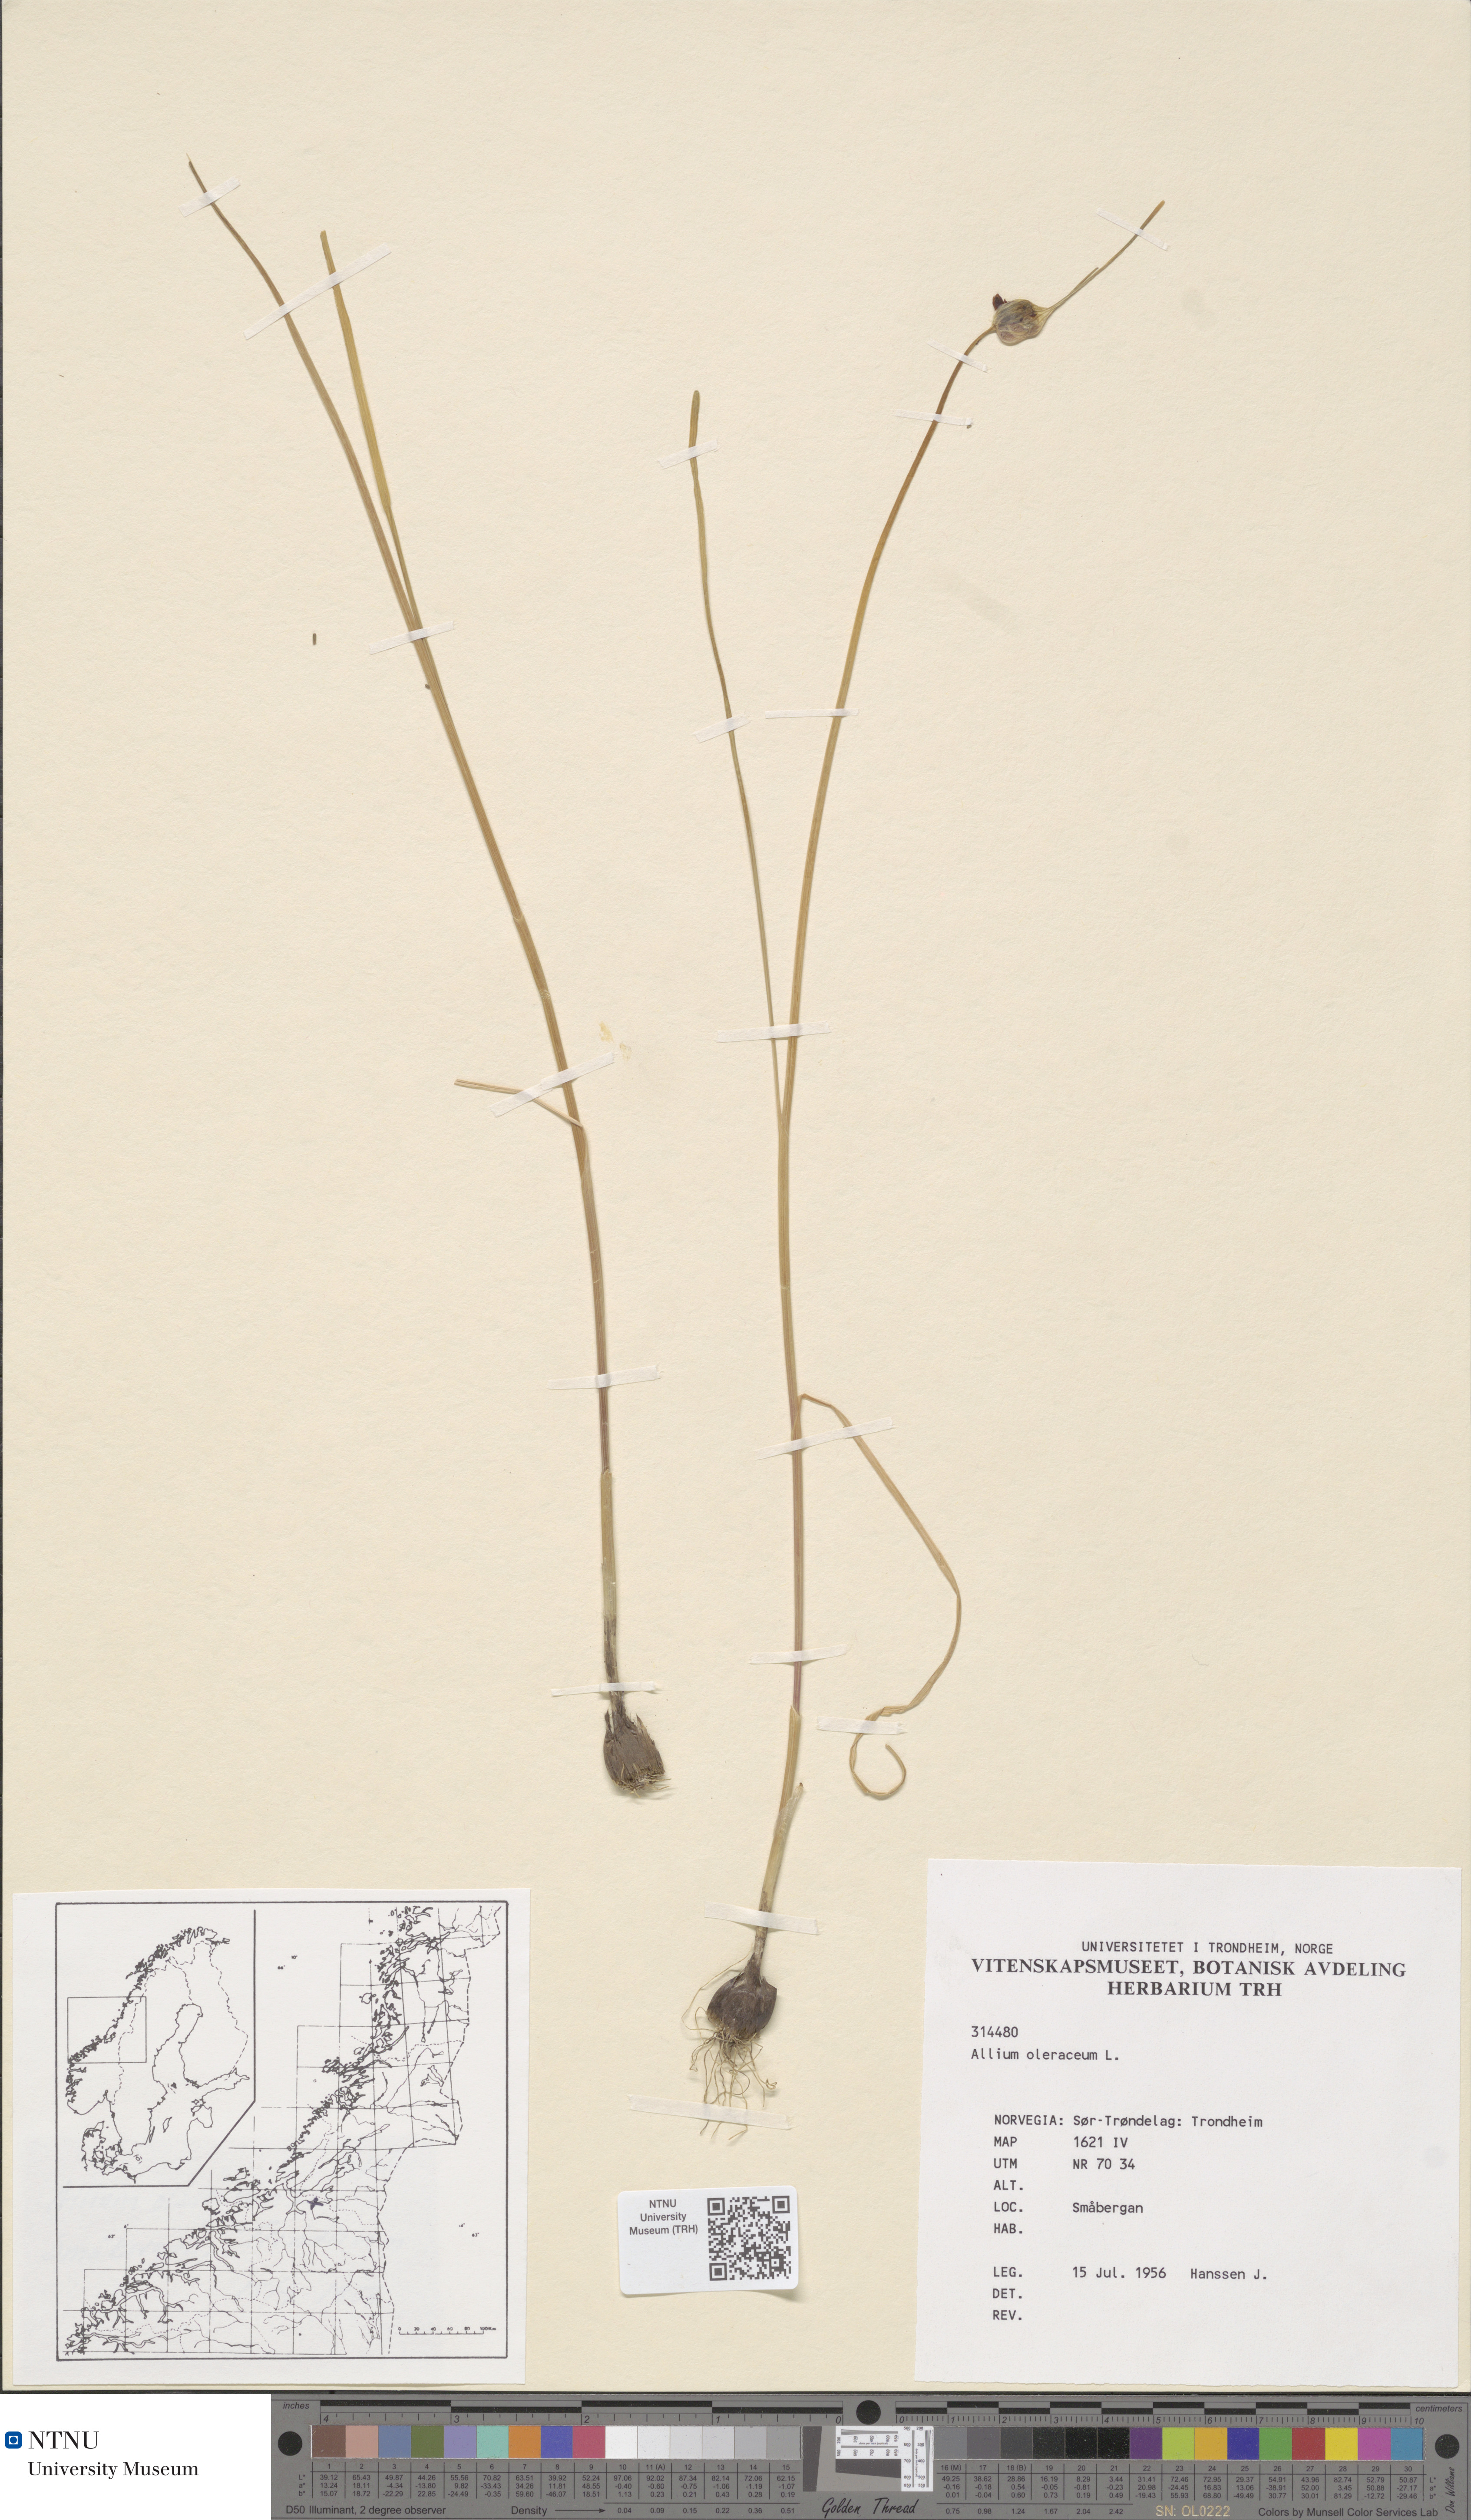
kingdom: Plantae
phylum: Tracheophyta
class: Liliopsida
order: Asparagales
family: Amaryllidaceae
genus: Allium
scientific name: Allium oleraceum
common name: Field garlic
